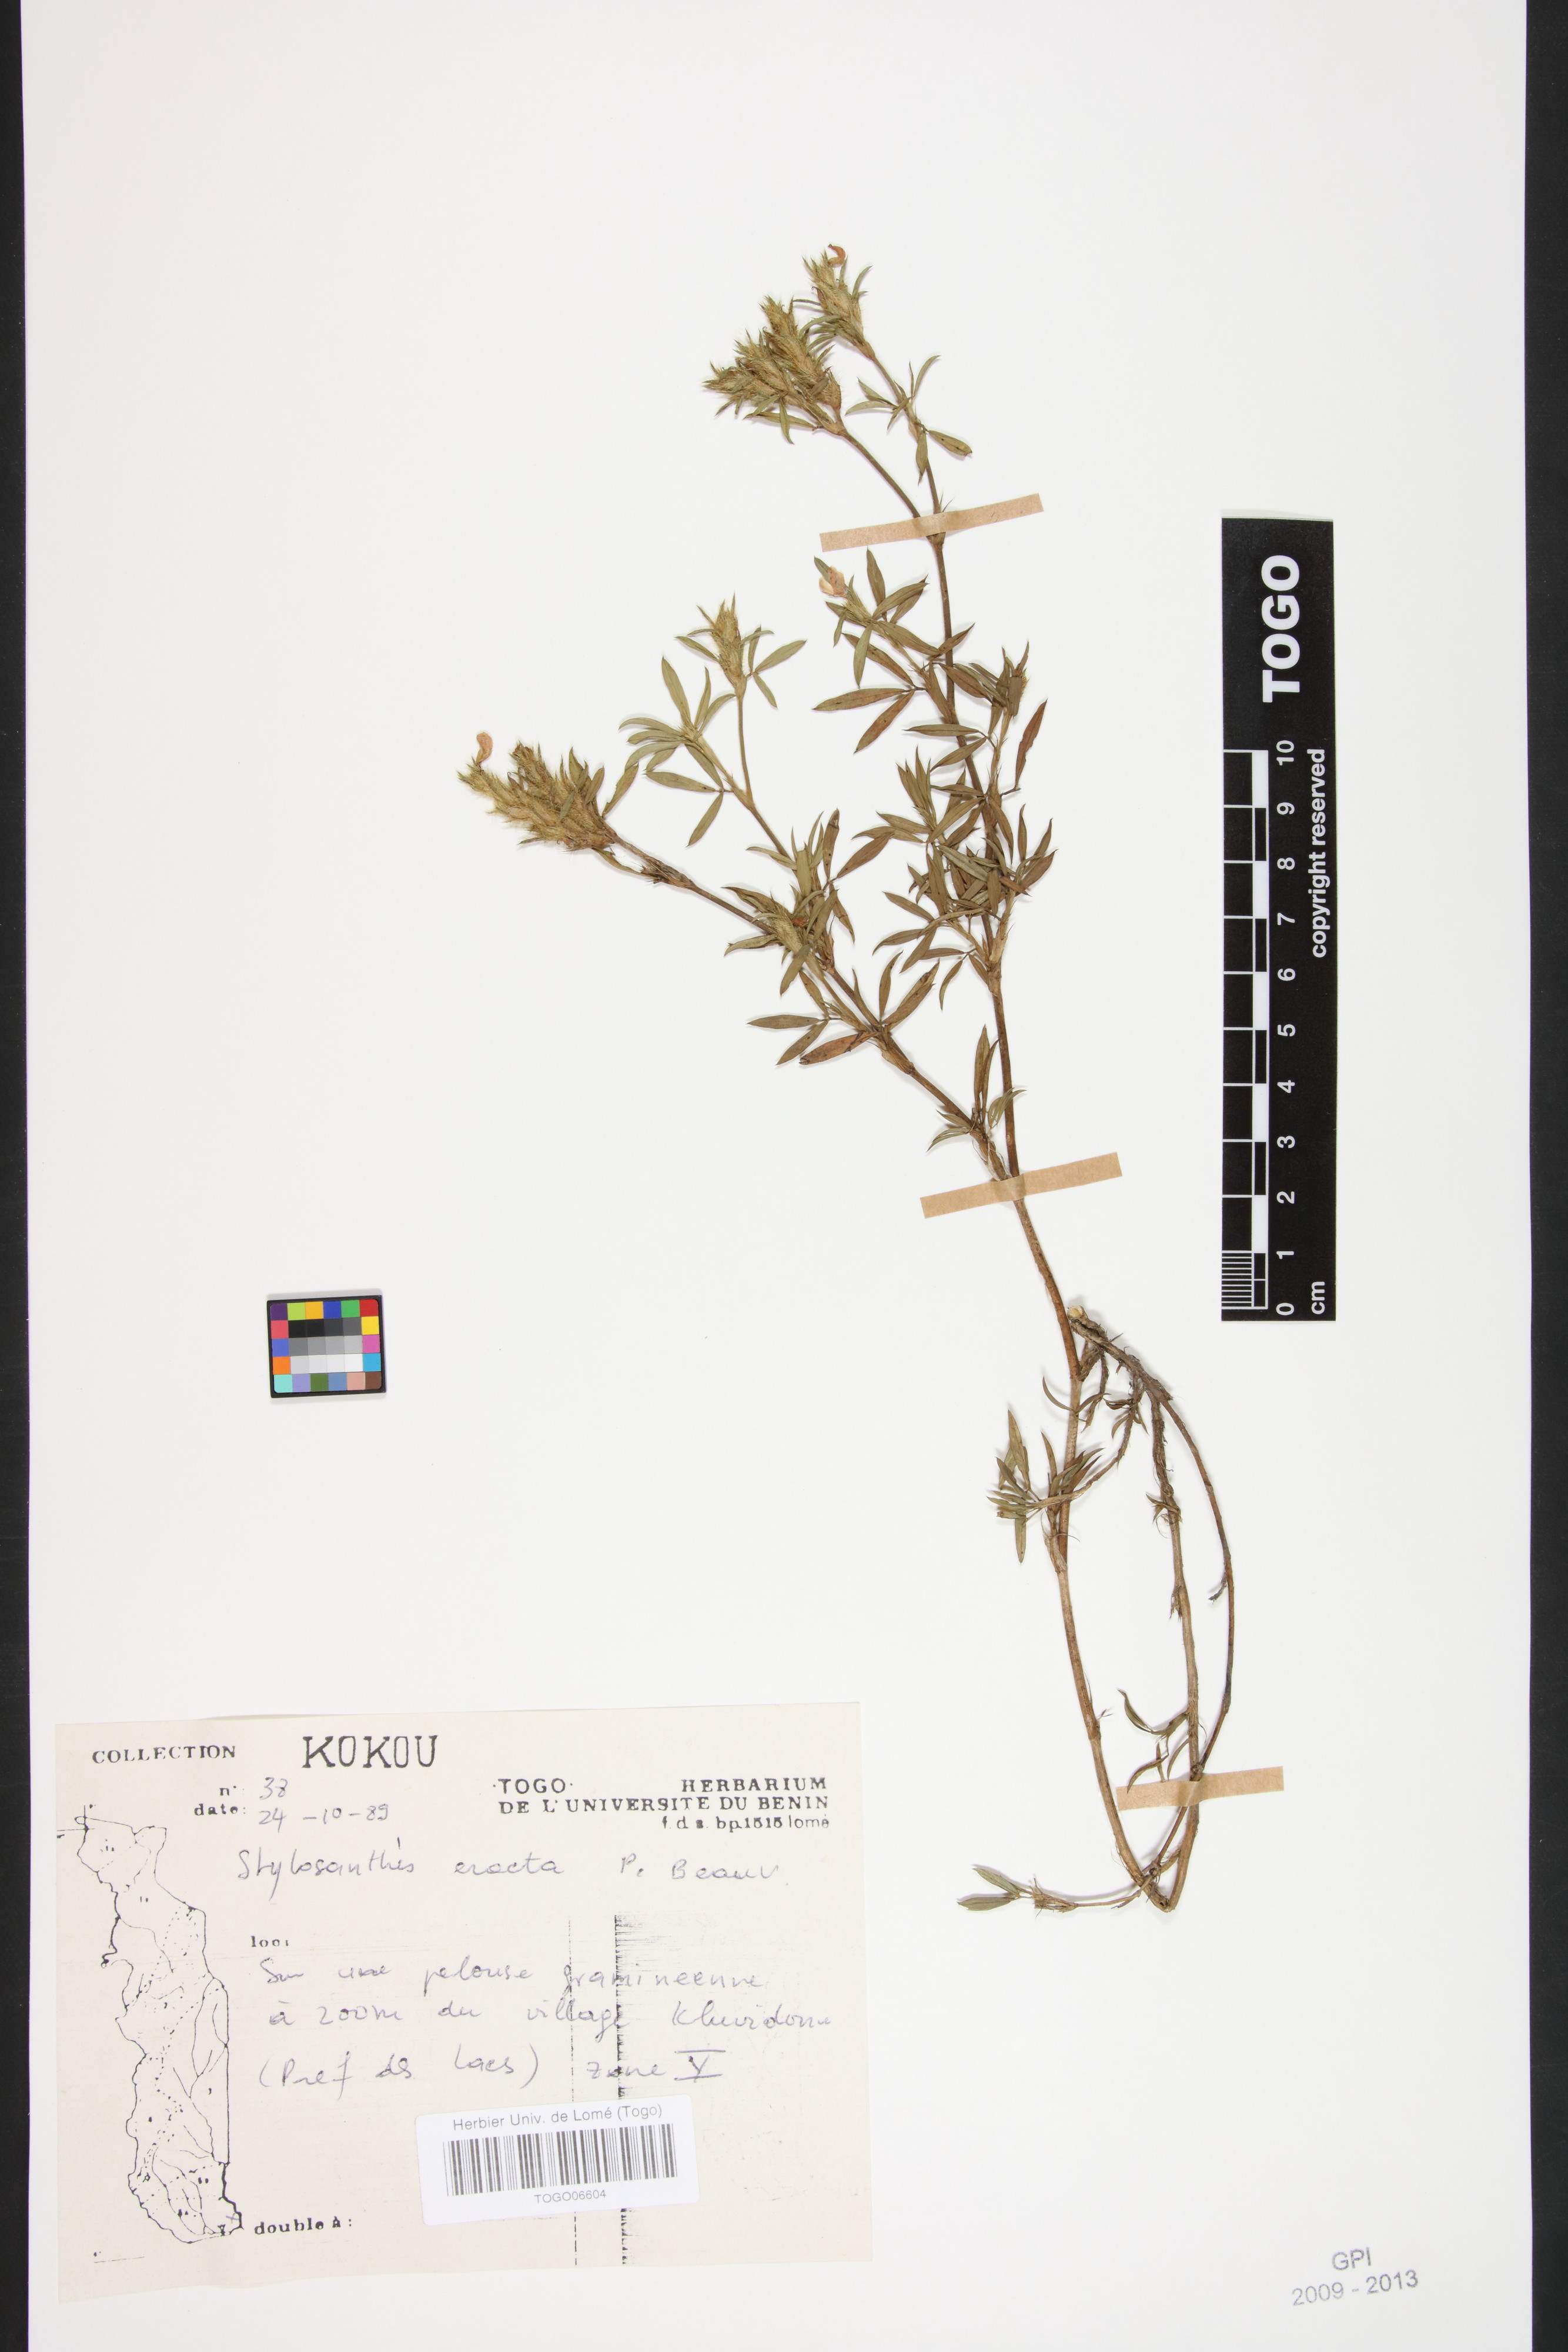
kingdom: Plantae
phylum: Tracheophyta
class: Magnoliopsida
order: Fabales
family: Fabaceae
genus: Stylosanthes
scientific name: Stylosanthes erecta
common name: Nigerian stylo
